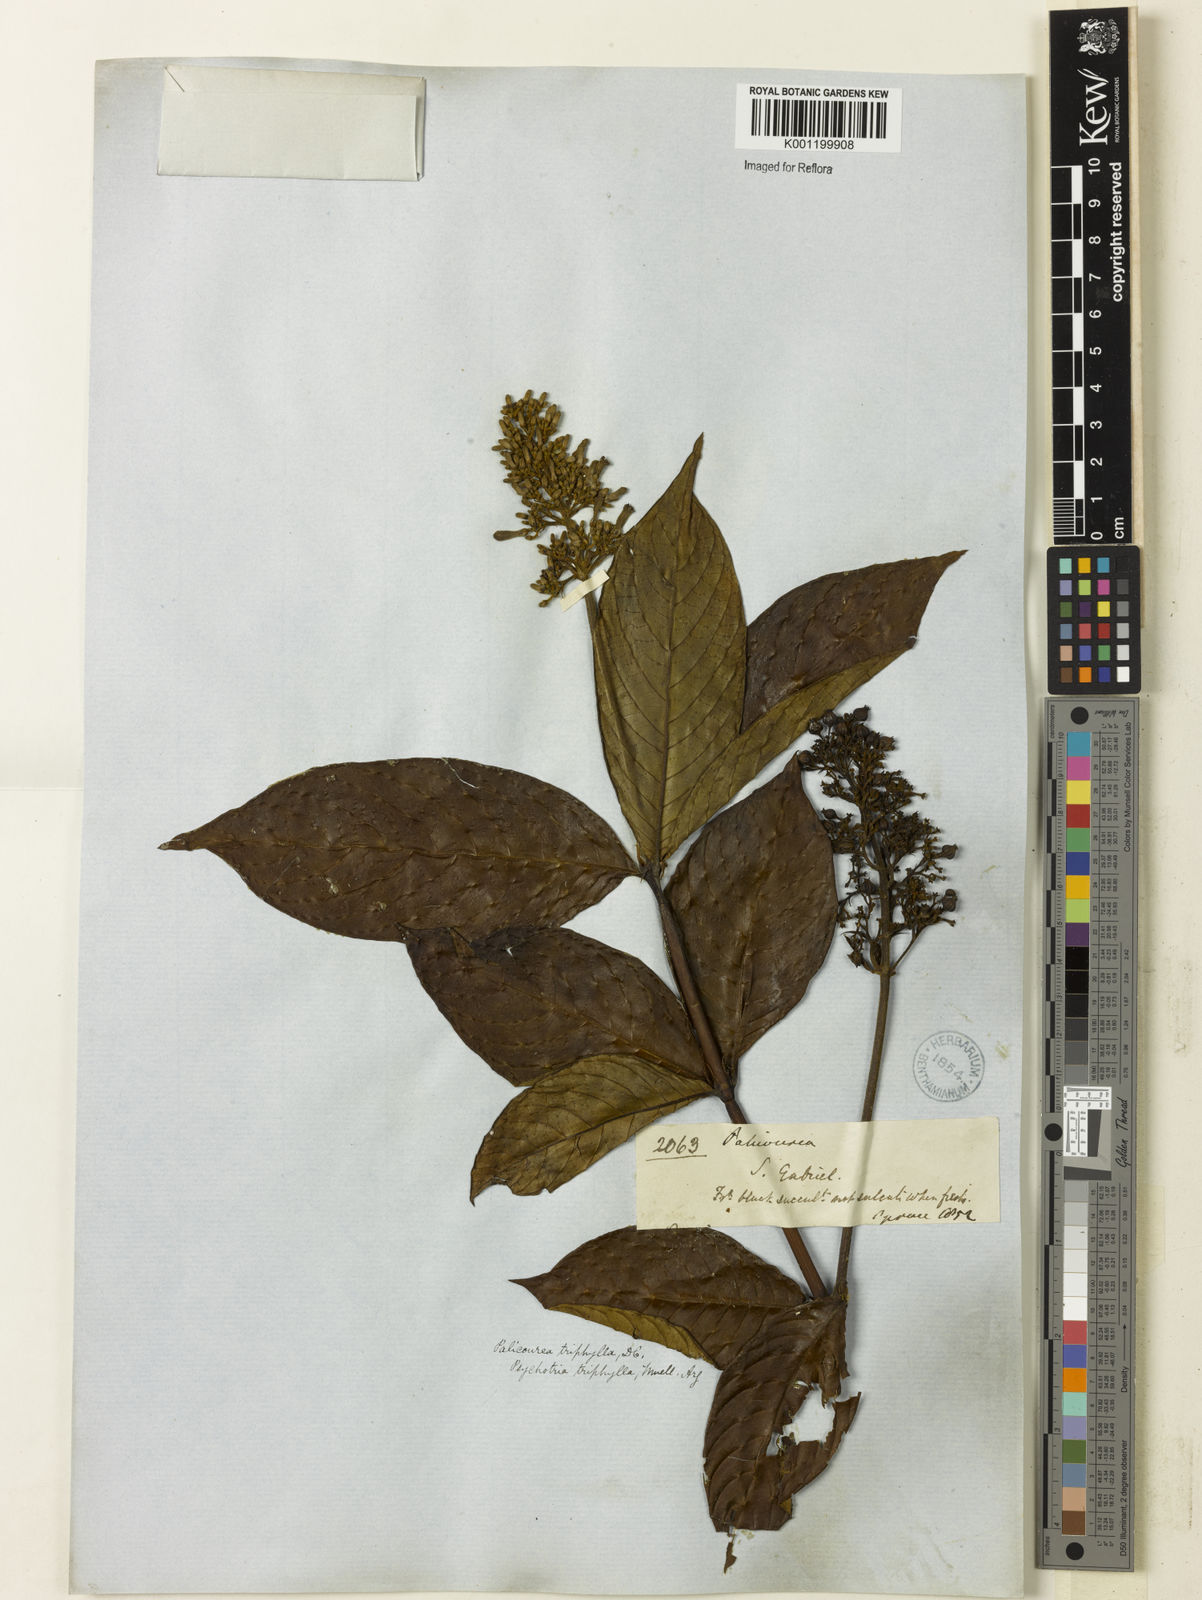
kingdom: Plantae
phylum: Tracheophyta
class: Magnoliopsida
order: Gentianales
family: Rubiaceae
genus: Palicourea
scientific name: Palicourea triphylla
